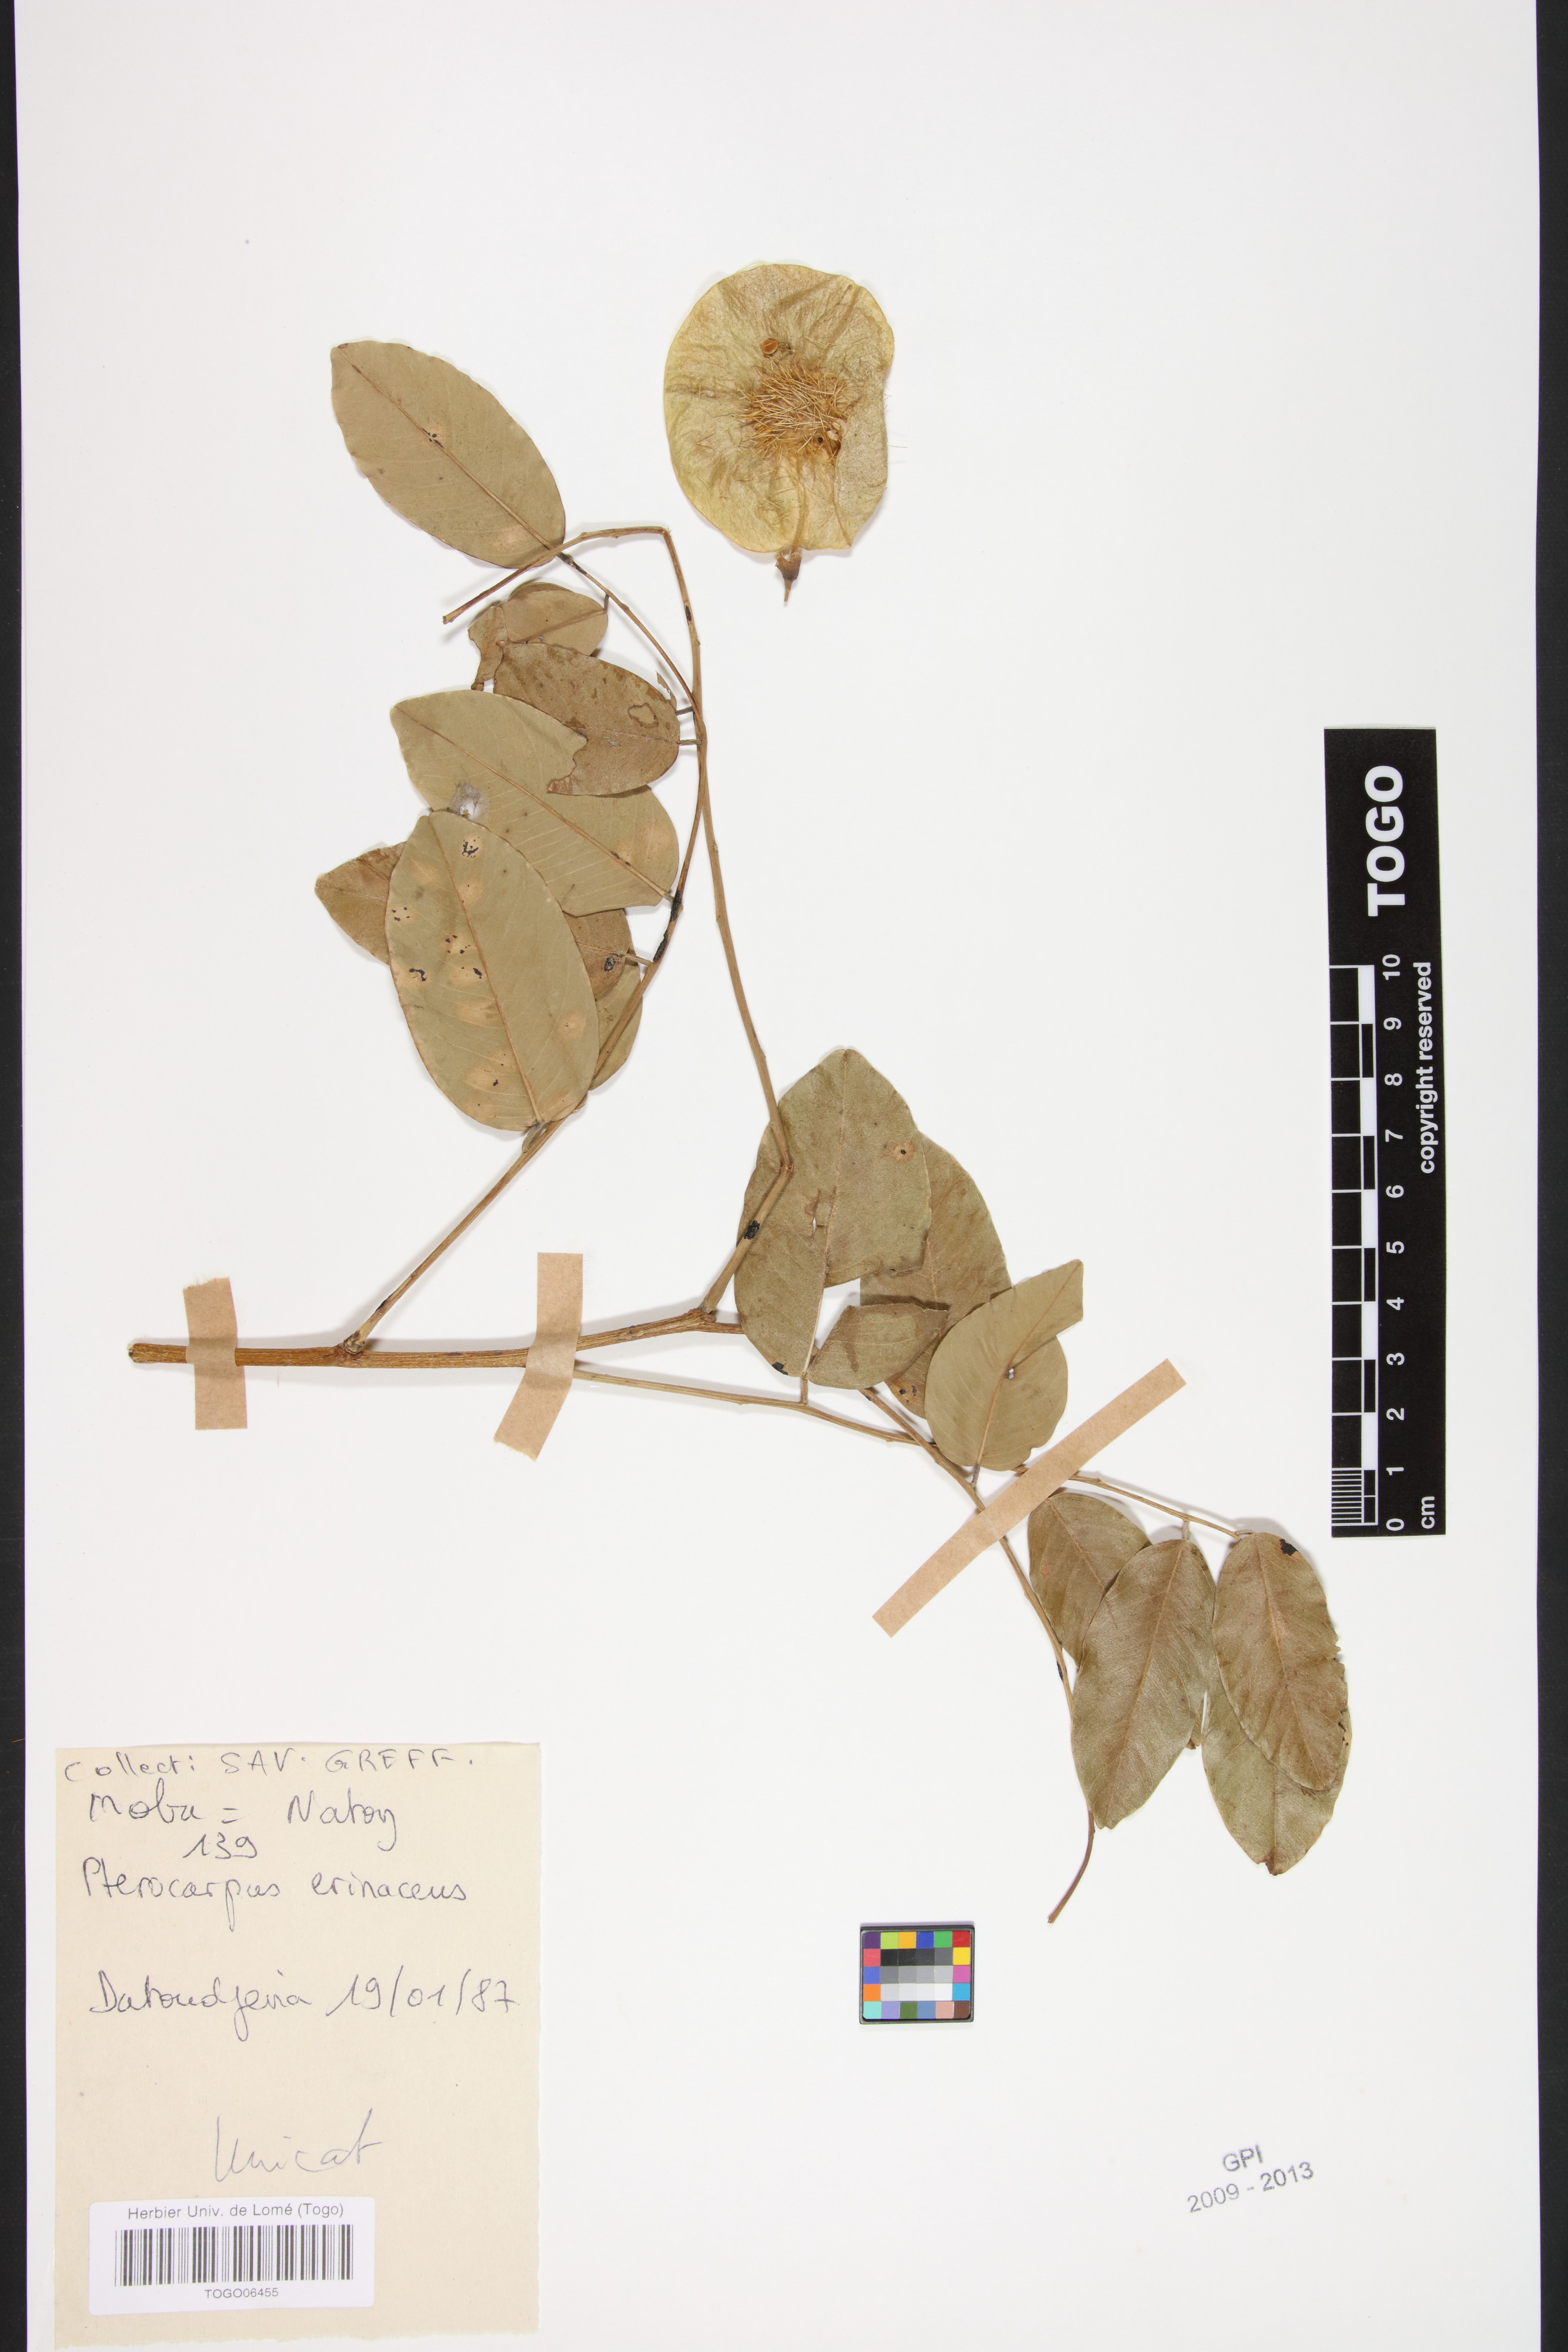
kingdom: Plantae
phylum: Tracheophyta
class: Magnoliopsida
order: Fabales
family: Fabaceae
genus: Pterocarpus
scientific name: Pterocarpus erinaceus
